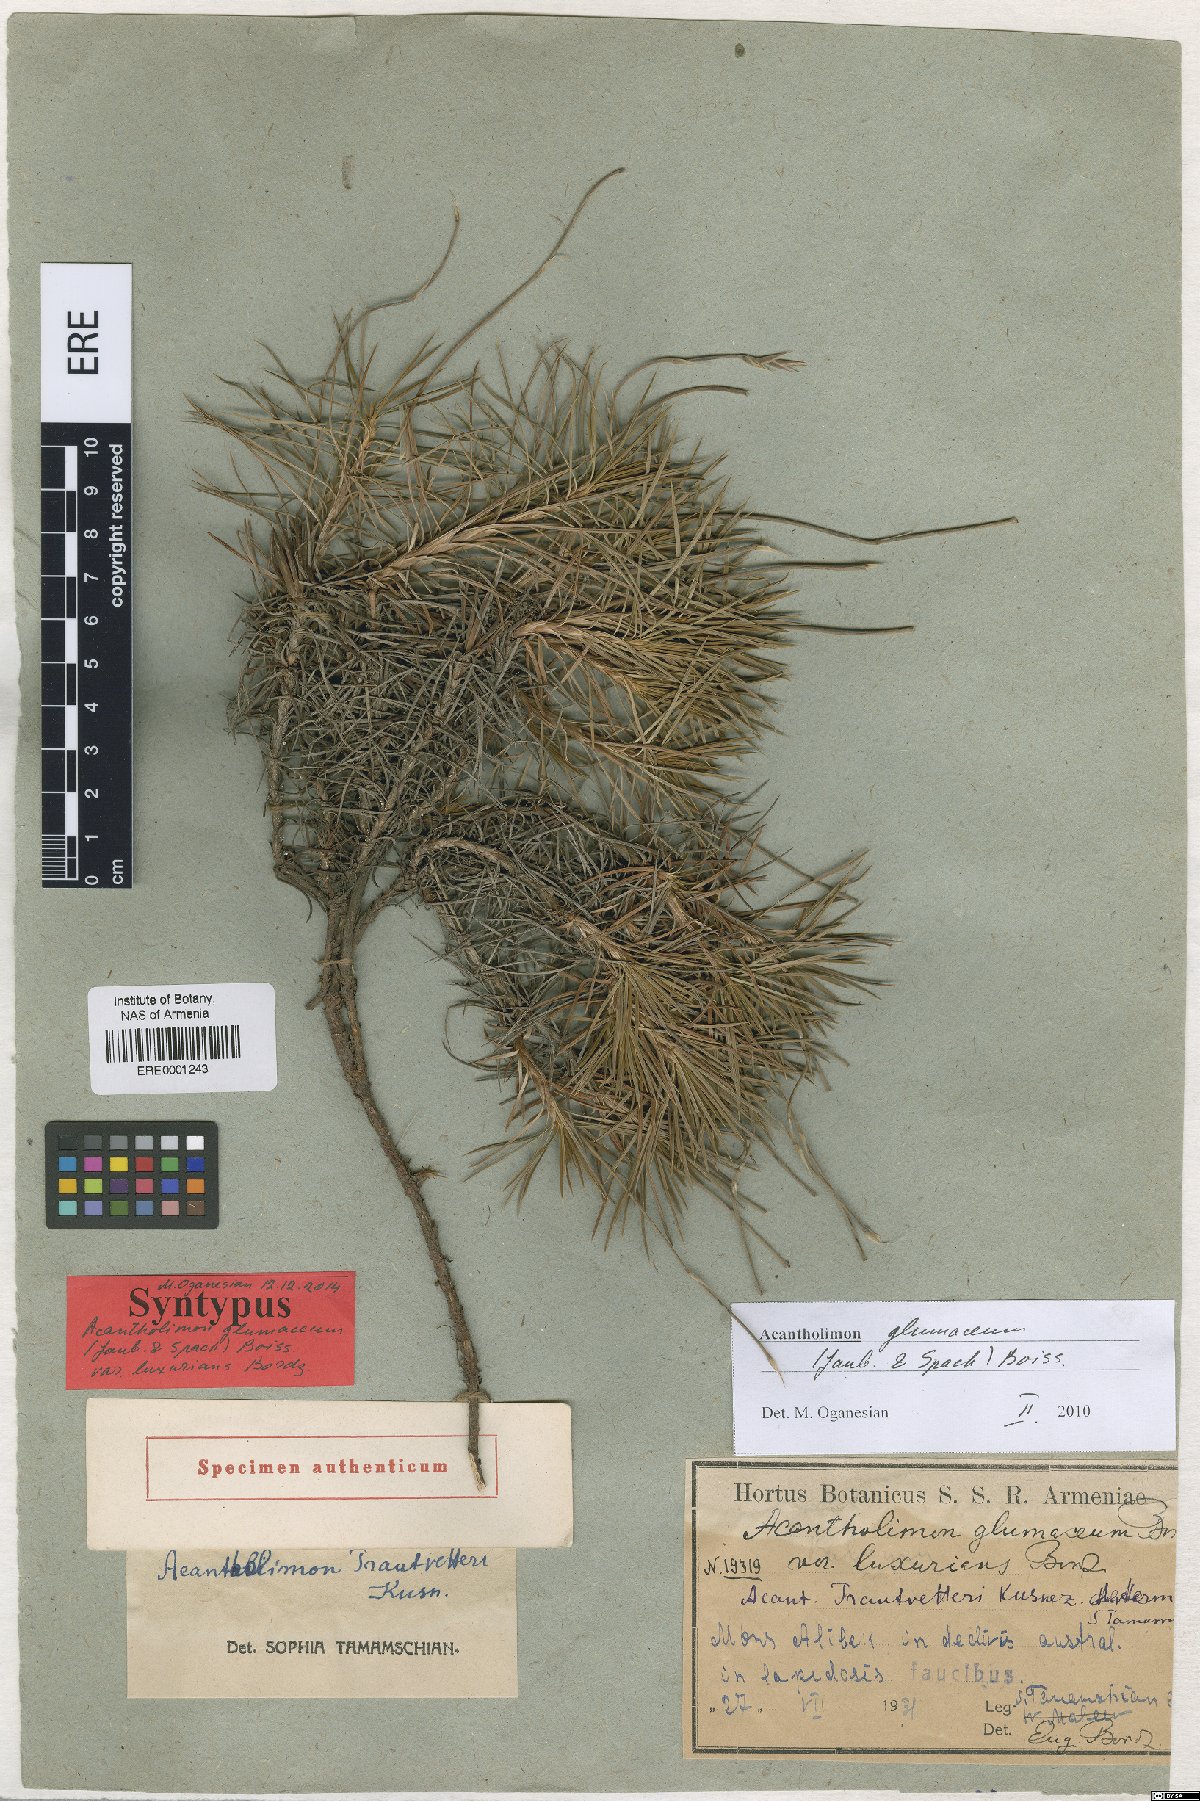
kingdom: Plantae
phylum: Tracheophyta
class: Magnoliopsida
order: Caryophyllales
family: Plumbaginaceae
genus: Acantholimon
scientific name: Acantholimon glumaceum
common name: Prickly-thrift
